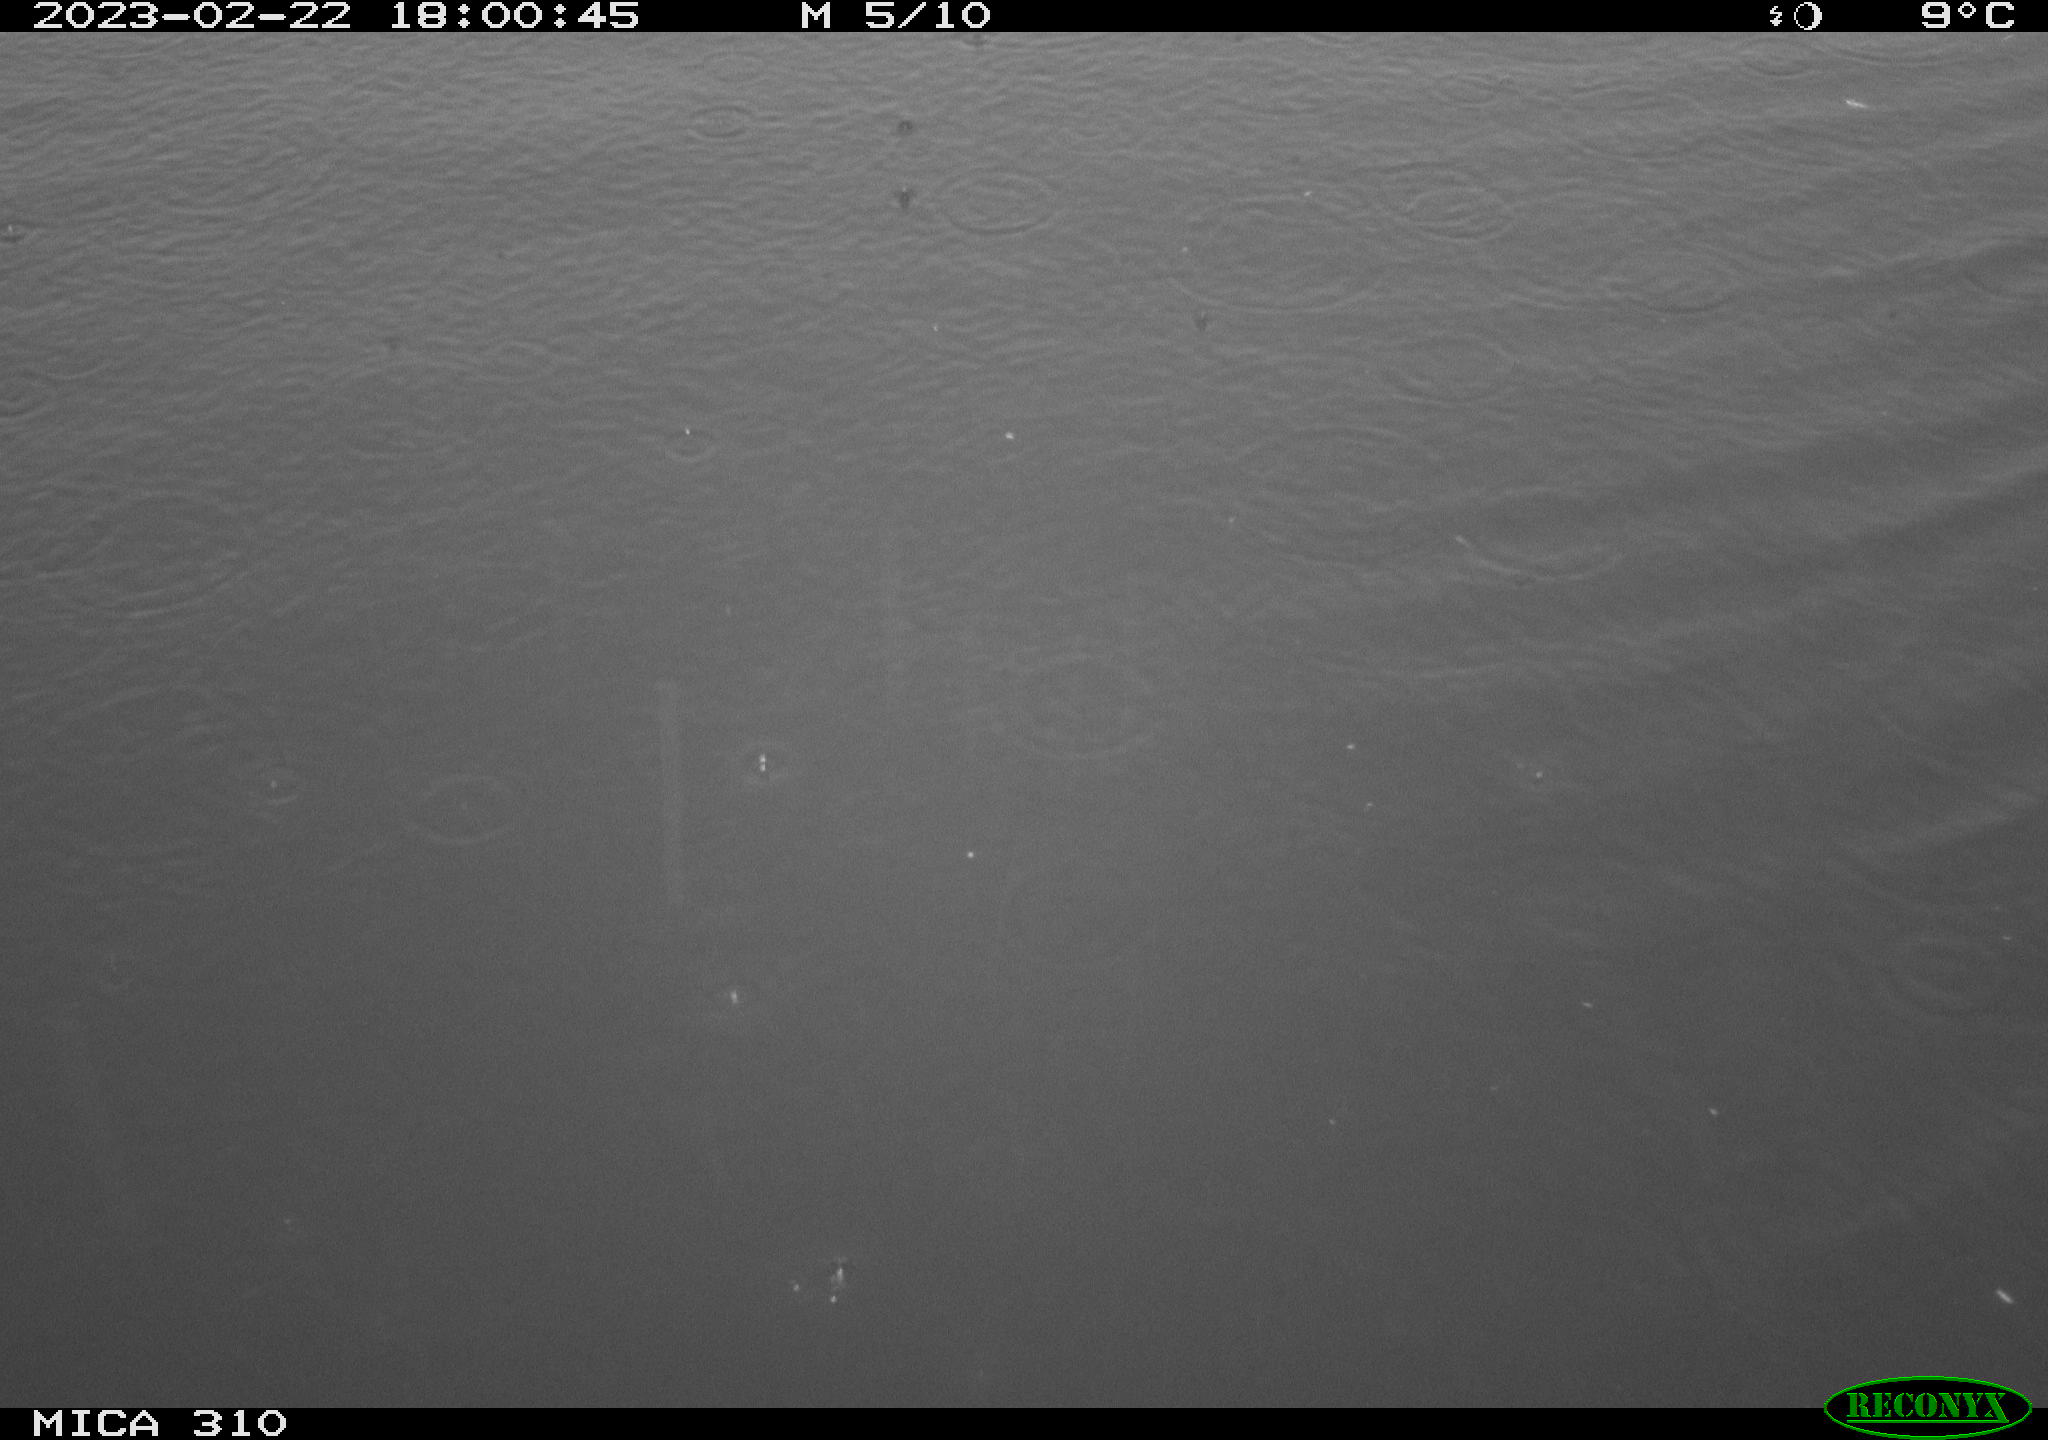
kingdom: Animalia
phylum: Chordata
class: Aves
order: Anseriformes
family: Anatidae
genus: Anas
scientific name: Anas
